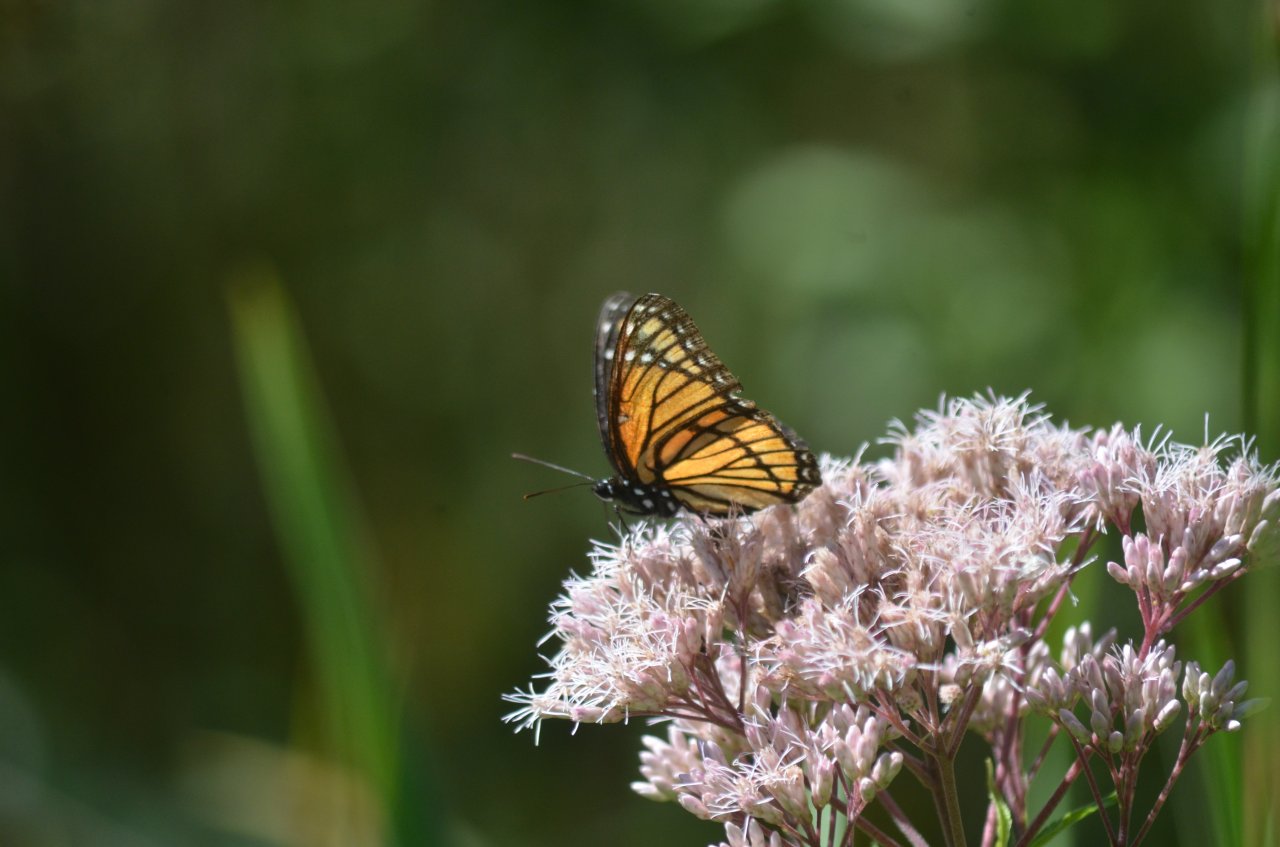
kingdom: Animalia
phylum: Arthropoda
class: Insecta
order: Lepidoptera
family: Nymphalidae
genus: Limenitis
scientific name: Limenitis archippus
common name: Viceroy
